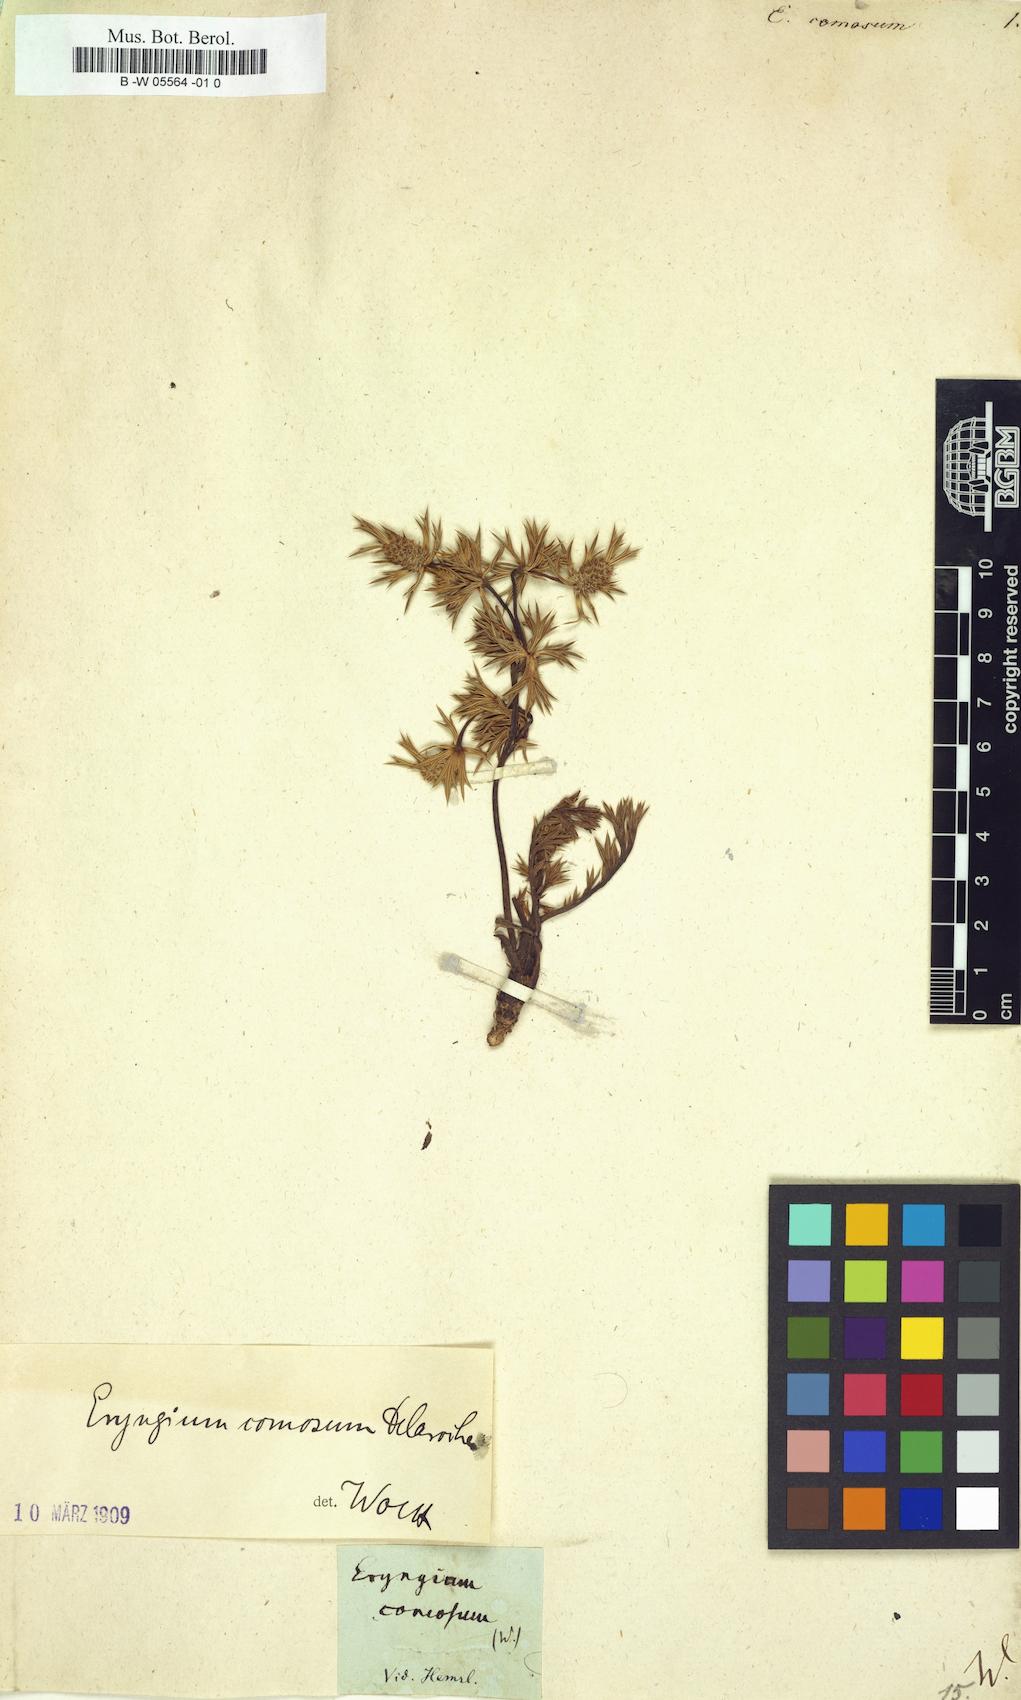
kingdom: Plantae
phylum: Tracheophyta
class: Magnoliopsida
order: Apiales
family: Apiaceae
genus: Eryngium
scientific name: Eryngium comosum
